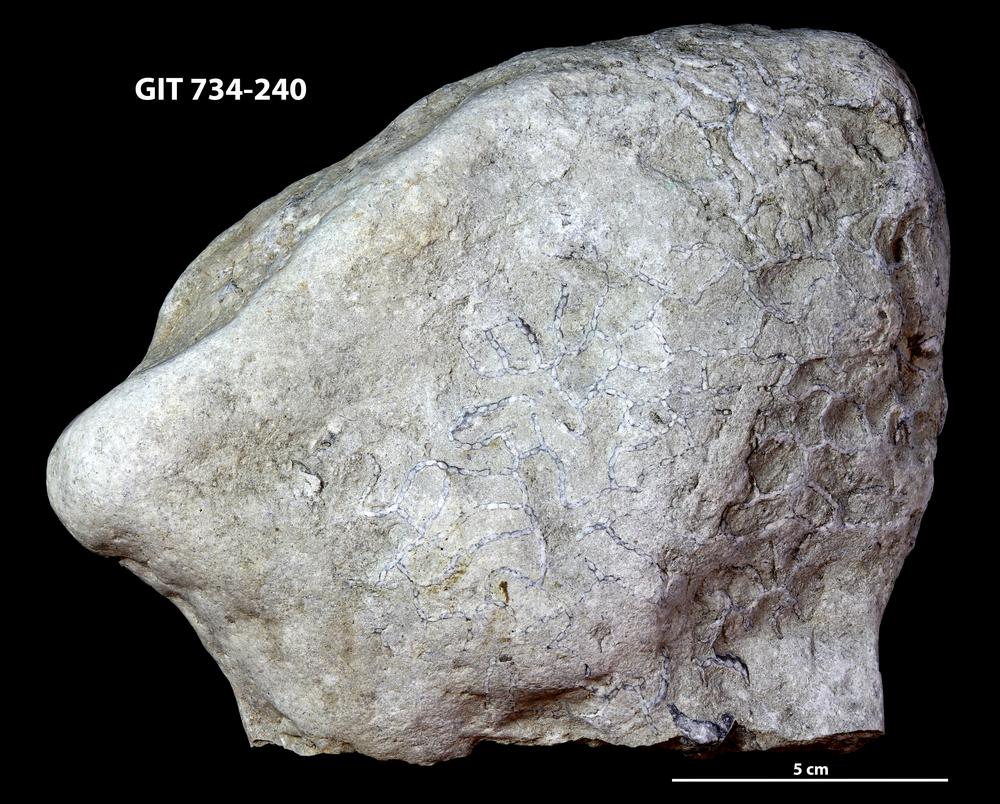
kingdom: Animalia
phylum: Cnidaria
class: Anthozoa
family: Cateniporidae
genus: Catenipora
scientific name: Catenipora
